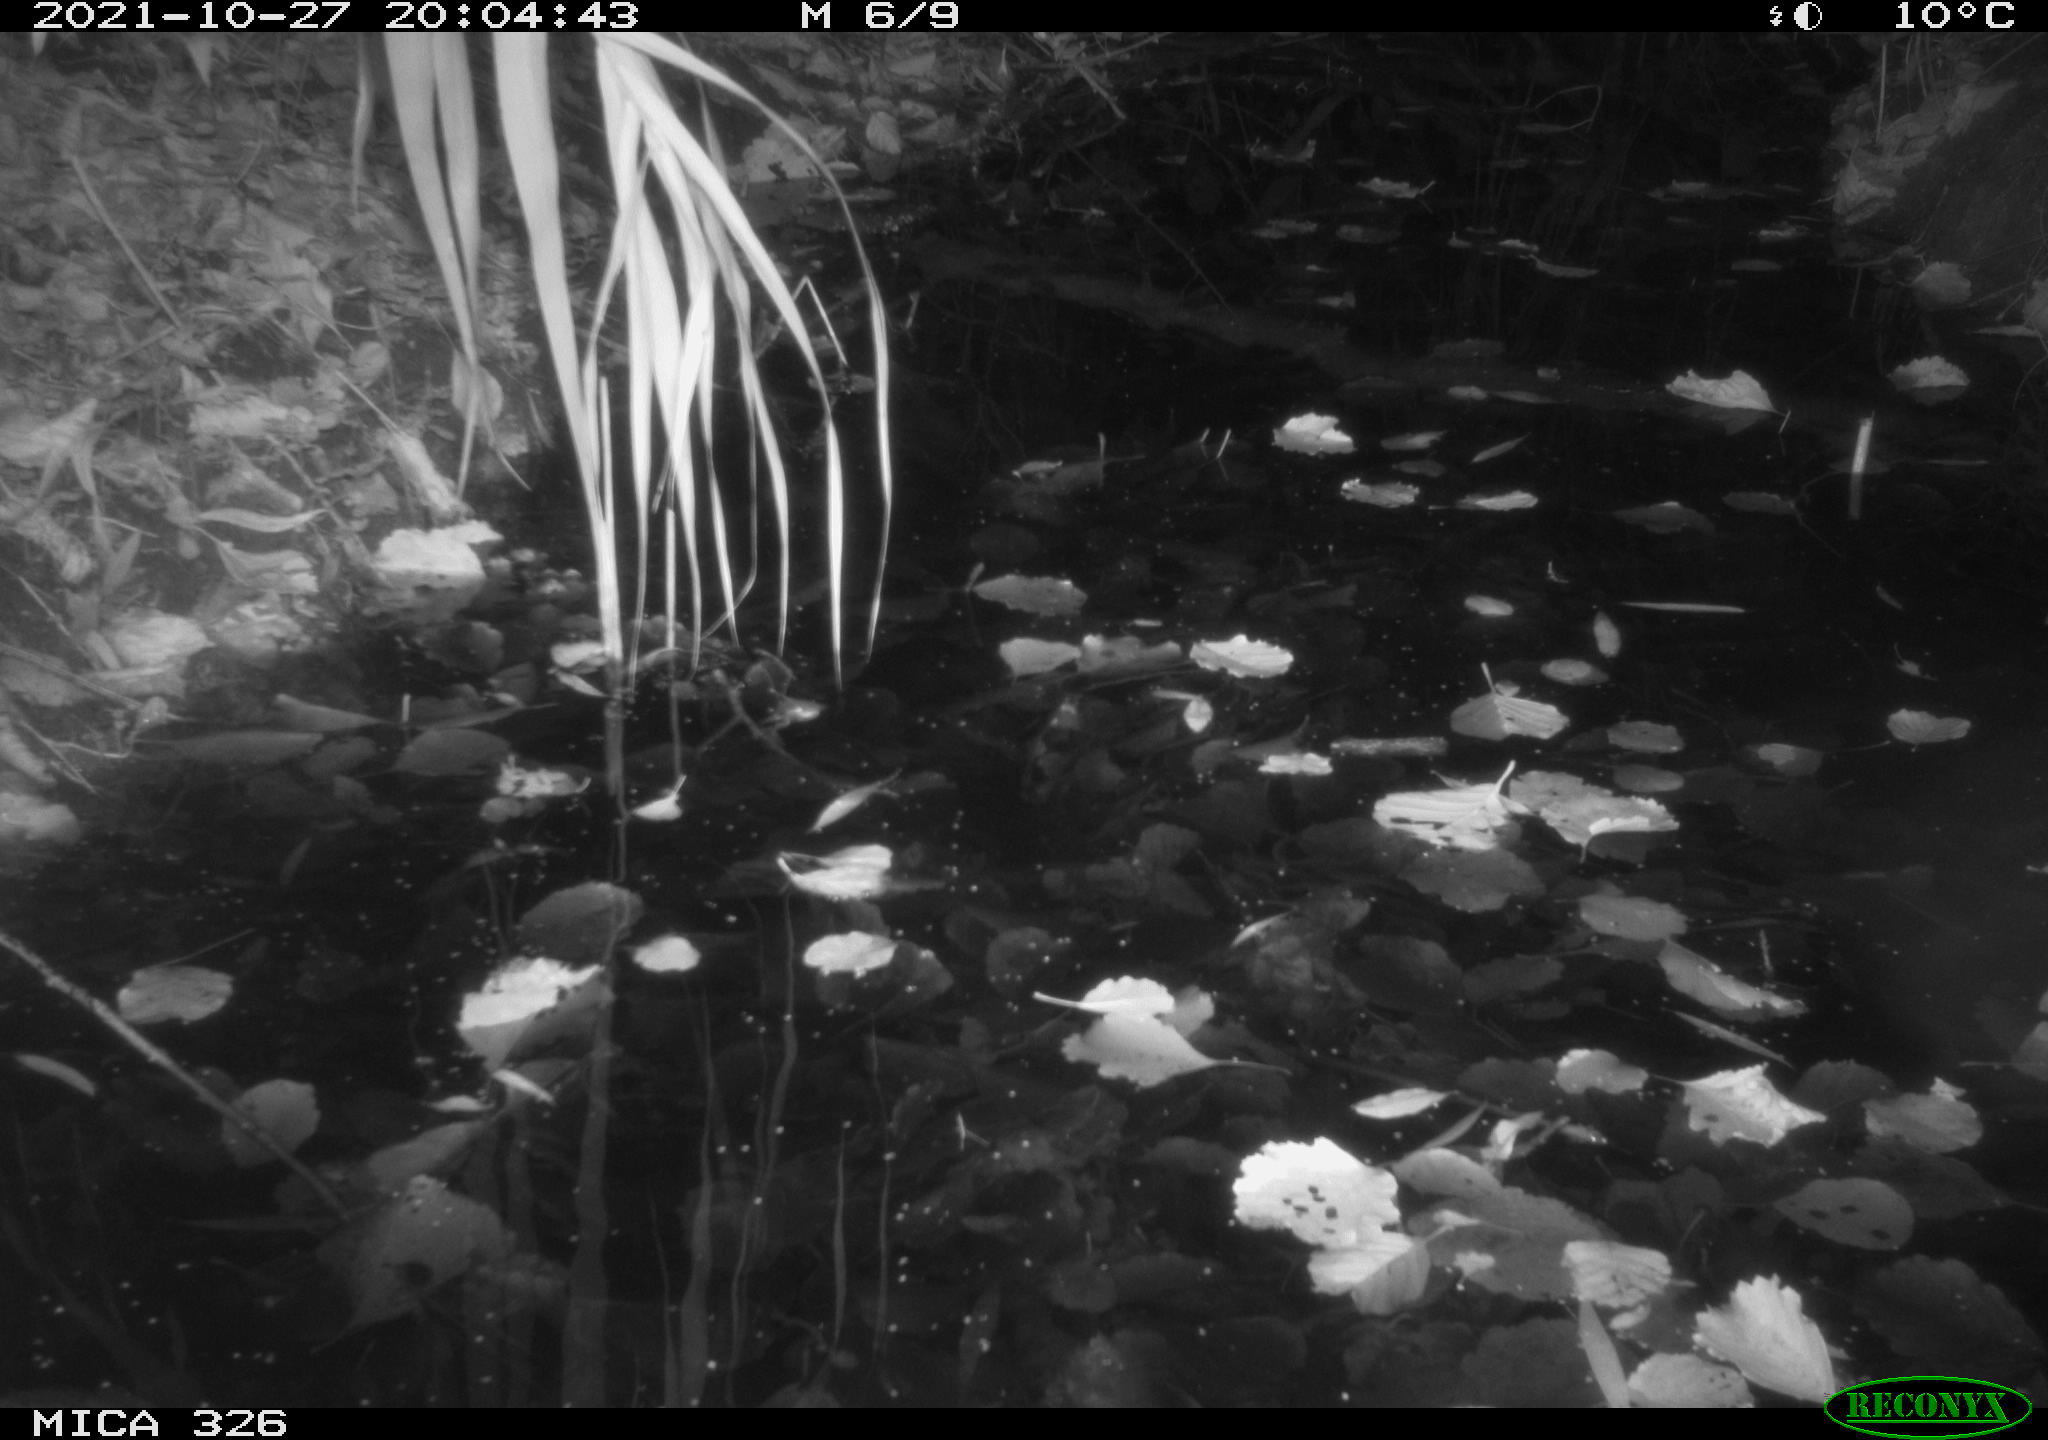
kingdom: Animalia
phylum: Chordata
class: Mammalia
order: Rodentia
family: Muridae
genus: Rattus
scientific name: Rattus norvegicus
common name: Brown rat
